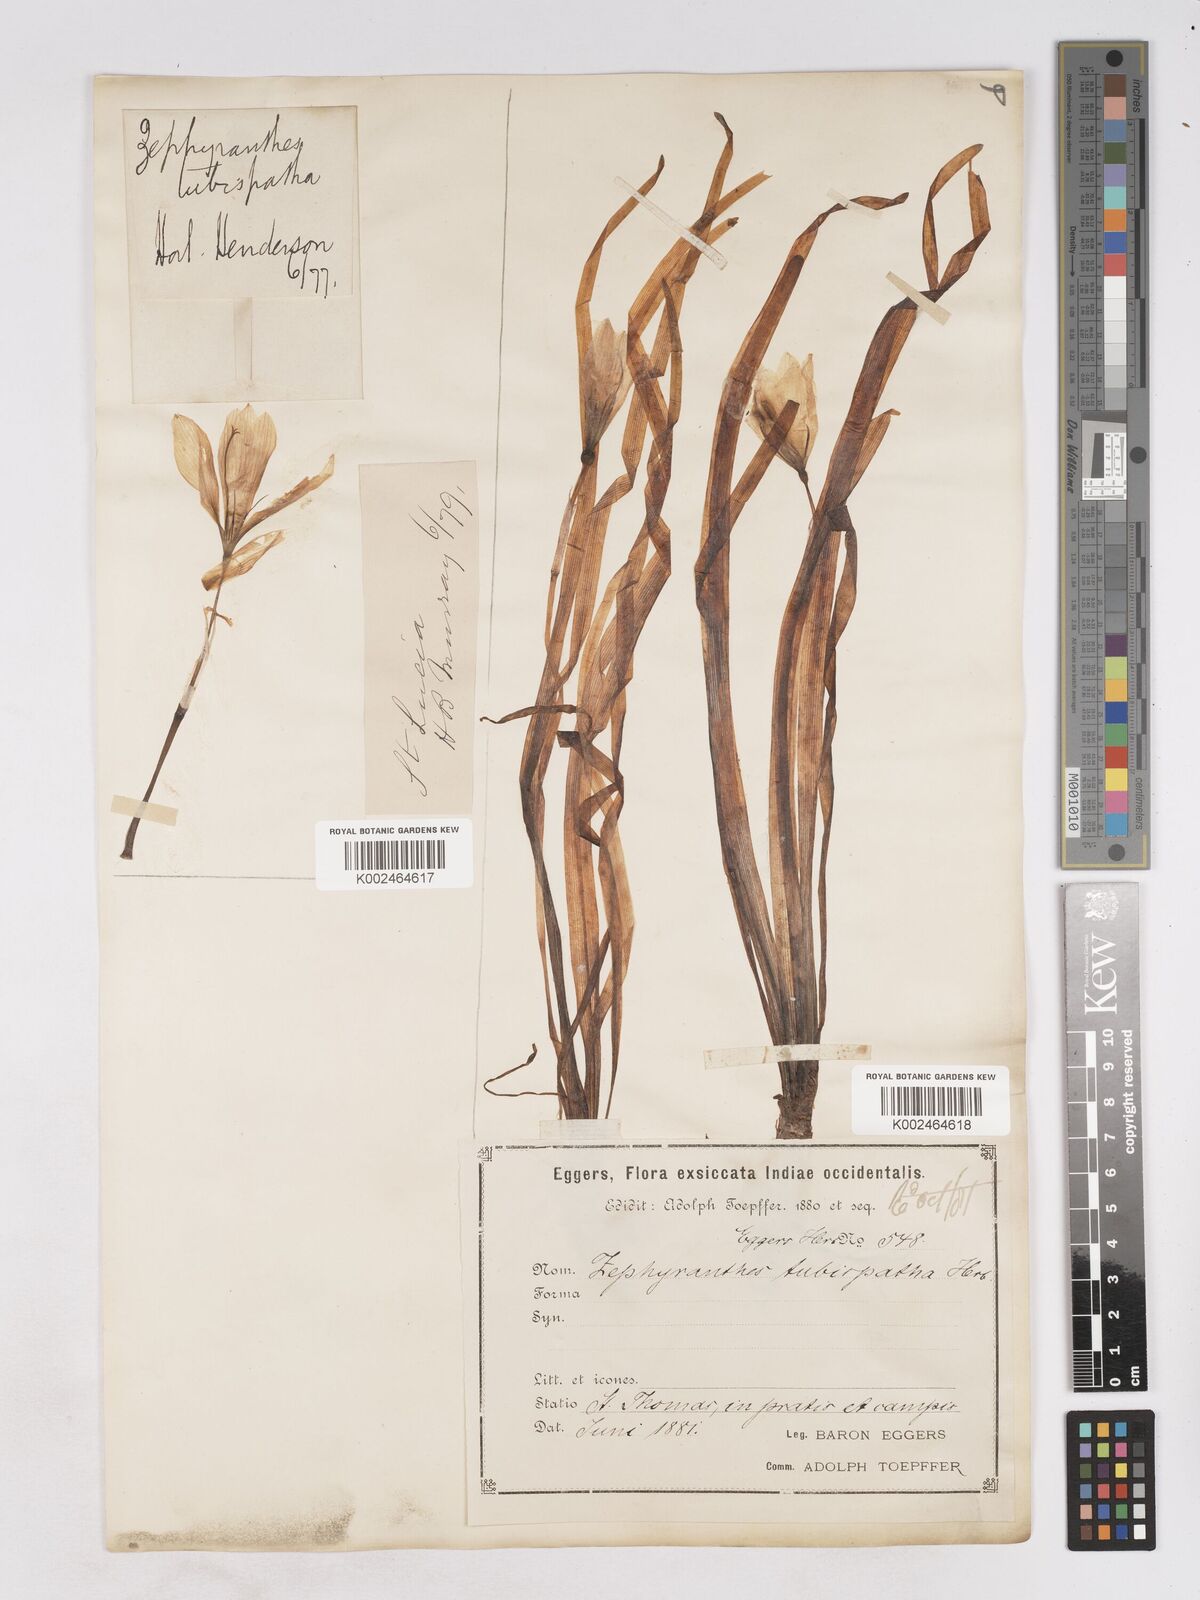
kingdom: Plantae
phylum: Tracheophyta
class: Liliopsida
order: Asparagales
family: Amaryllidaceae
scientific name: Amaryllidaceae
